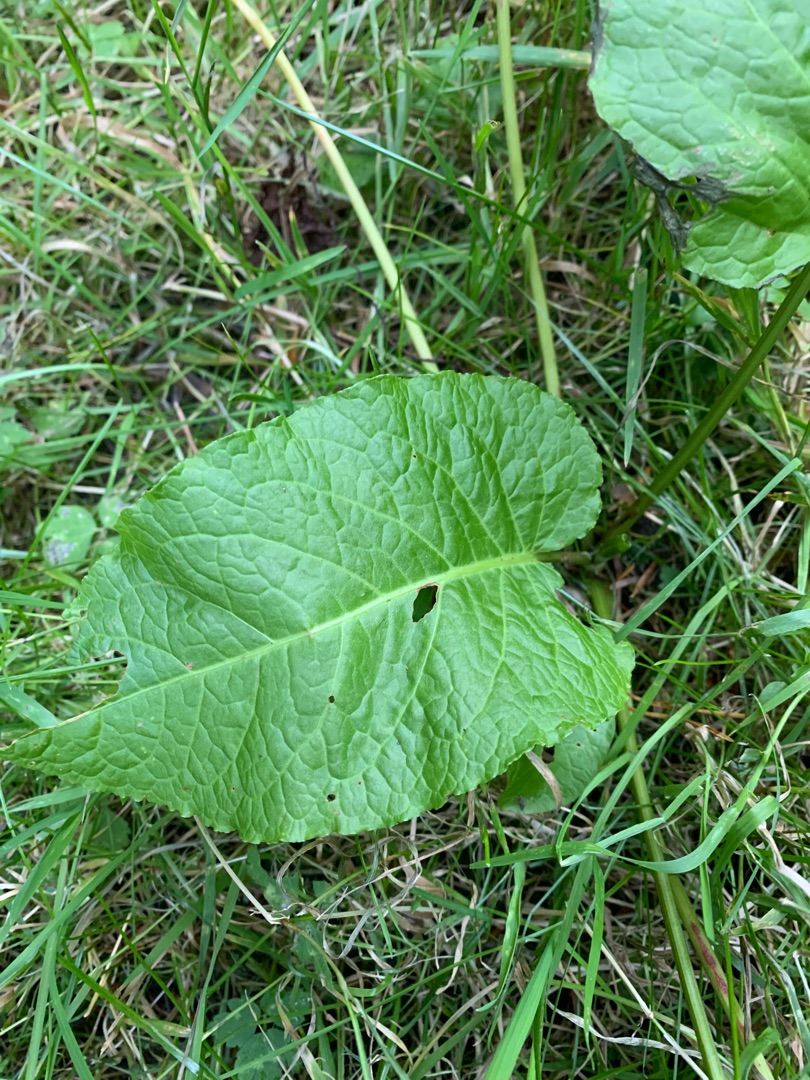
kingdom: Plantae
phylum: Tracheophyta
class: Magnoliopsida
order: Caryophyllales
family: Polygonaceae
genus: Rumex
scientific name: Rumex obtusifolius
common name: Butbladet skræppe
